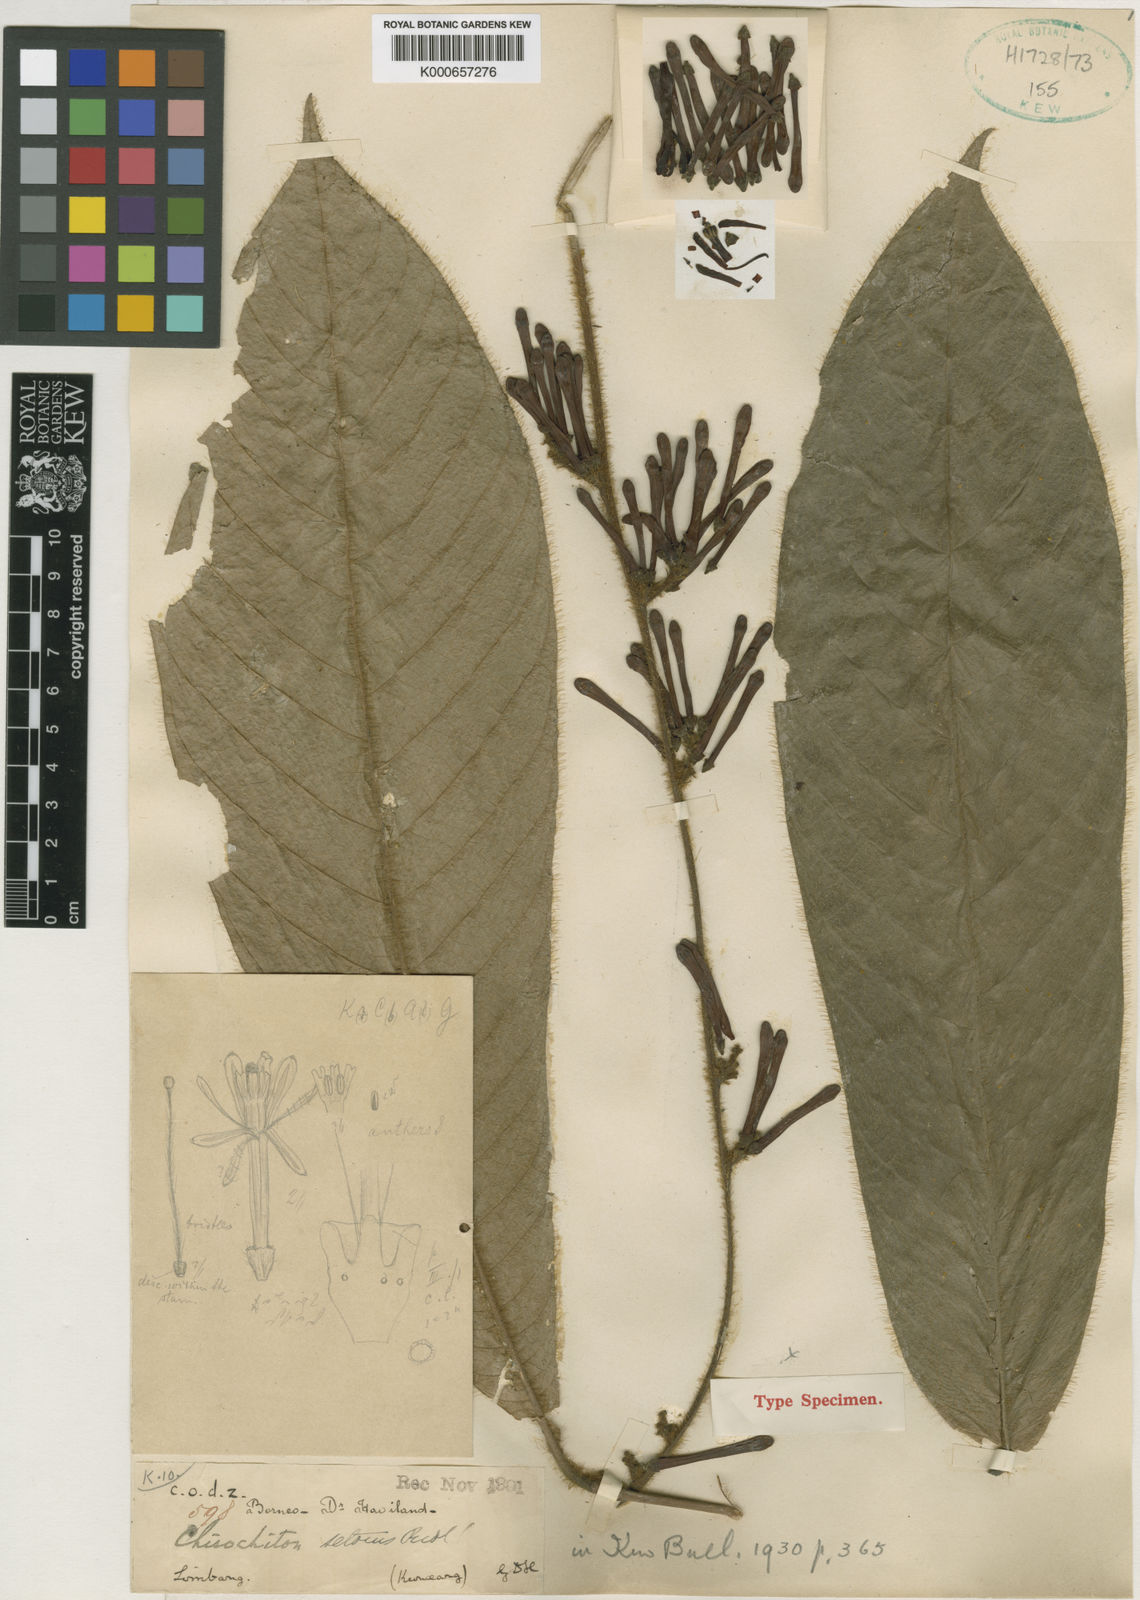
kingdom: Plantae
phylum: Tracheophyta
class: Magnoliopsida
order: Sapindales
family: Meliaceae
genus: Chisocheton
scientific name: Chisocheton setosus
